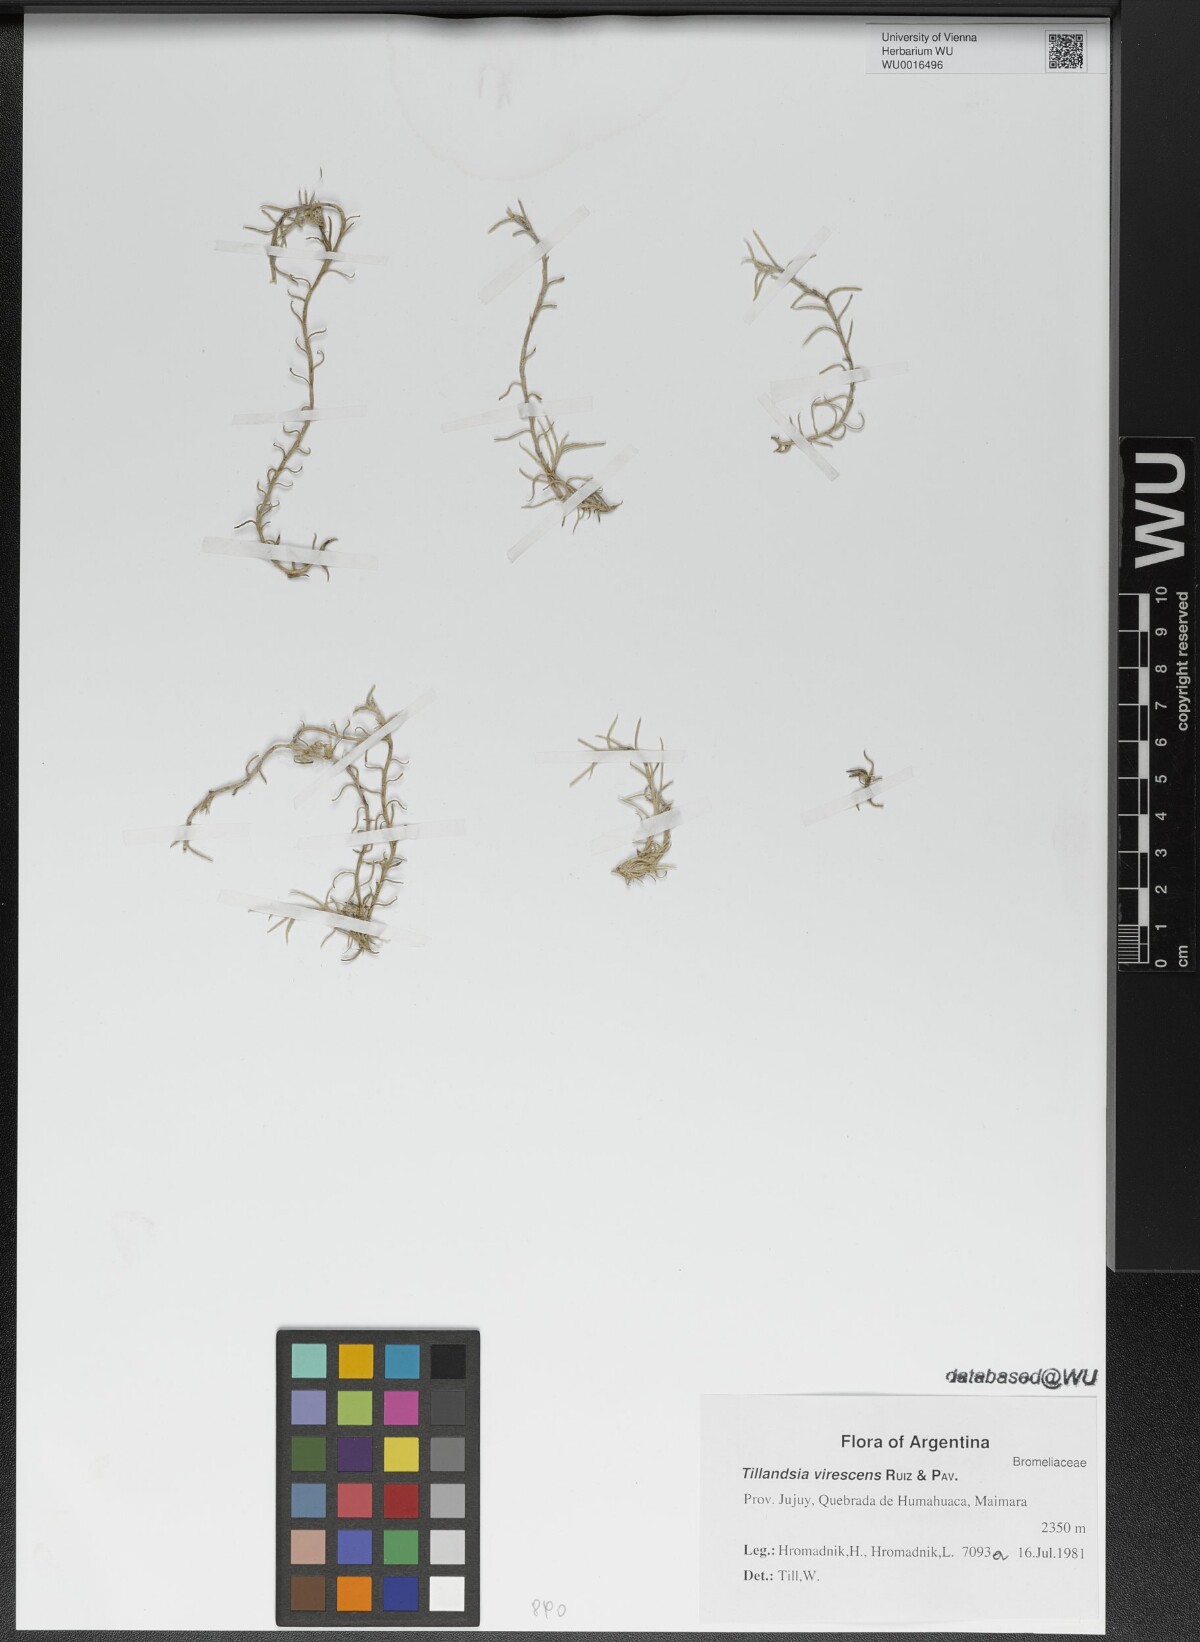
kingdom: Plantae
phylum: Tracheophyta
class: Liliopsida
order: Poales
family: Bromeliaceae
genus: Tillandsia
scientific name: Tillandsia virescens
